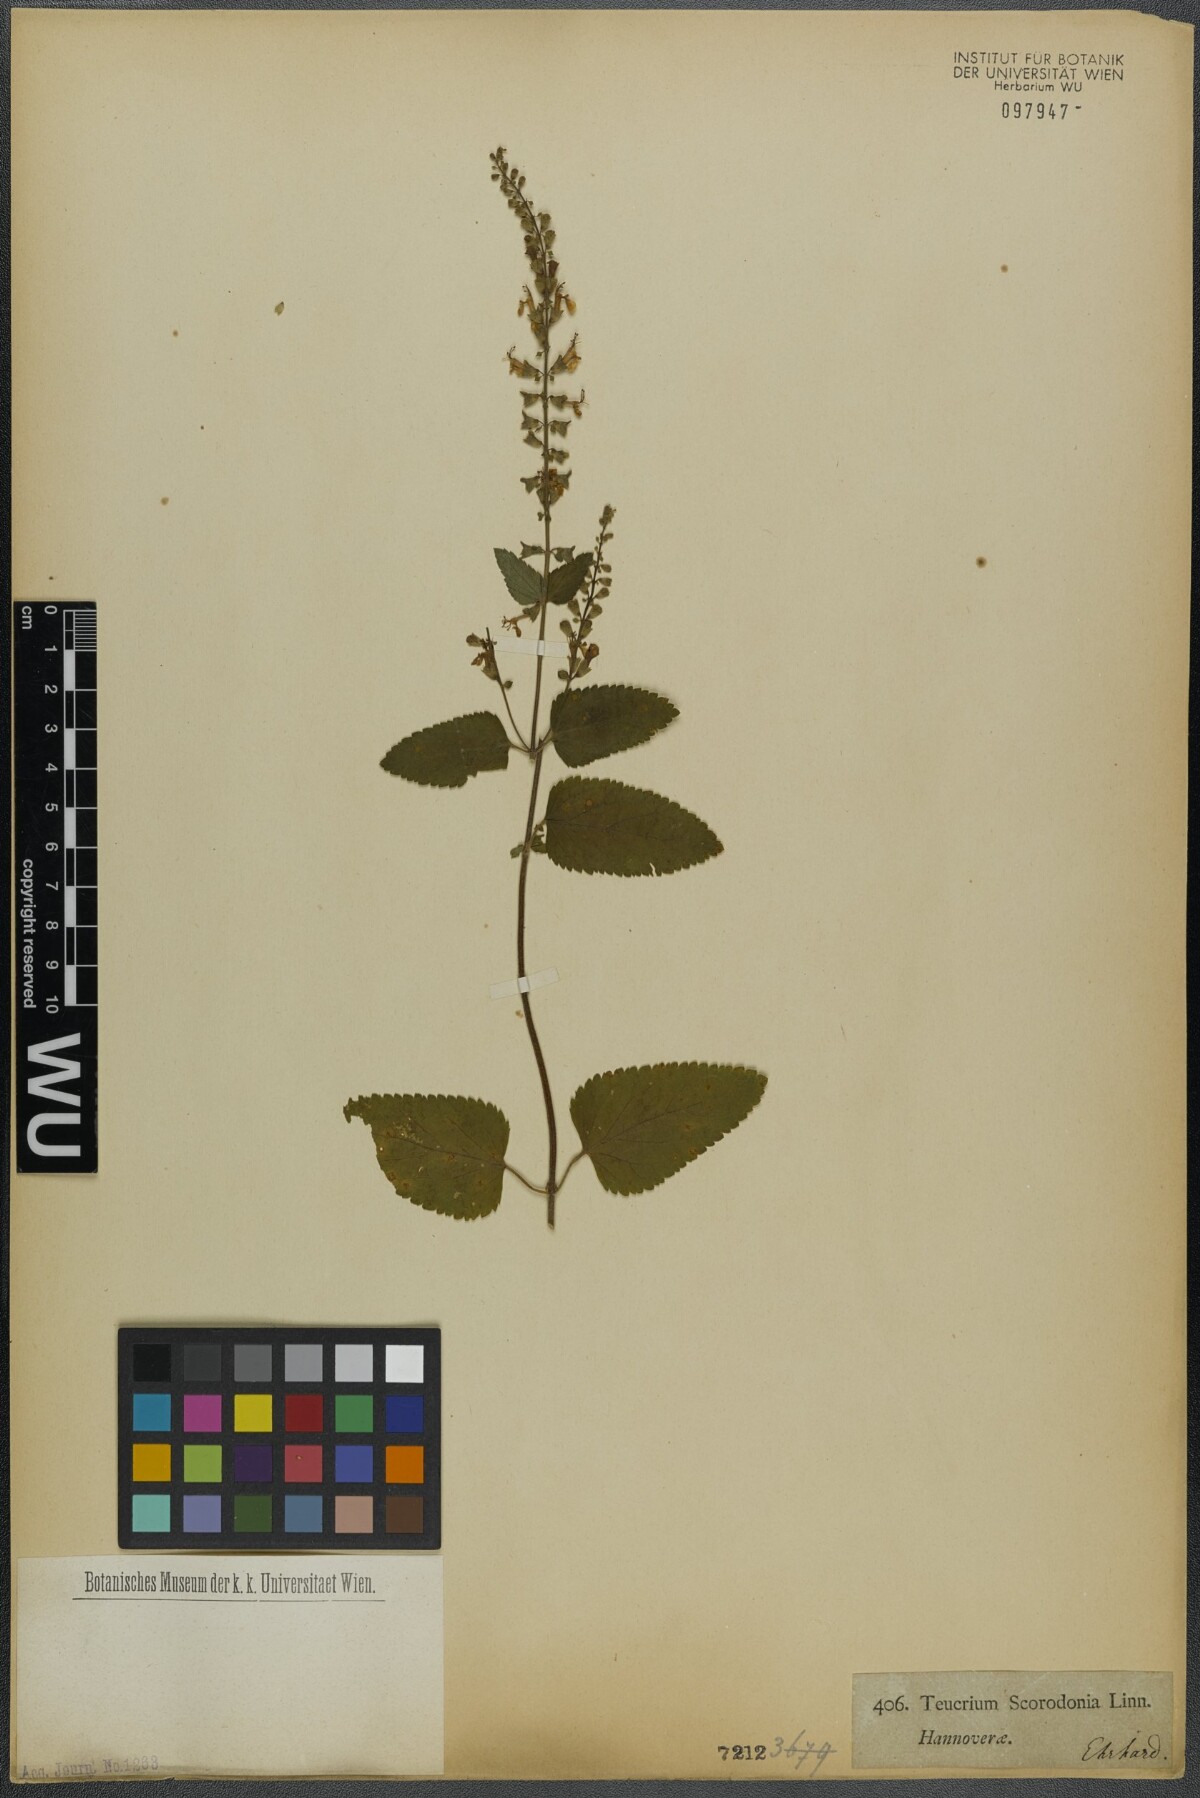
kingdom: Plantae
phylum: Tracheophyta
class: Magnoliopsida
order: Lamiales
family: Lamiaceae
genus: Teucrium
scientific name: Teucrium scorodonia
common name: Woodland germander
